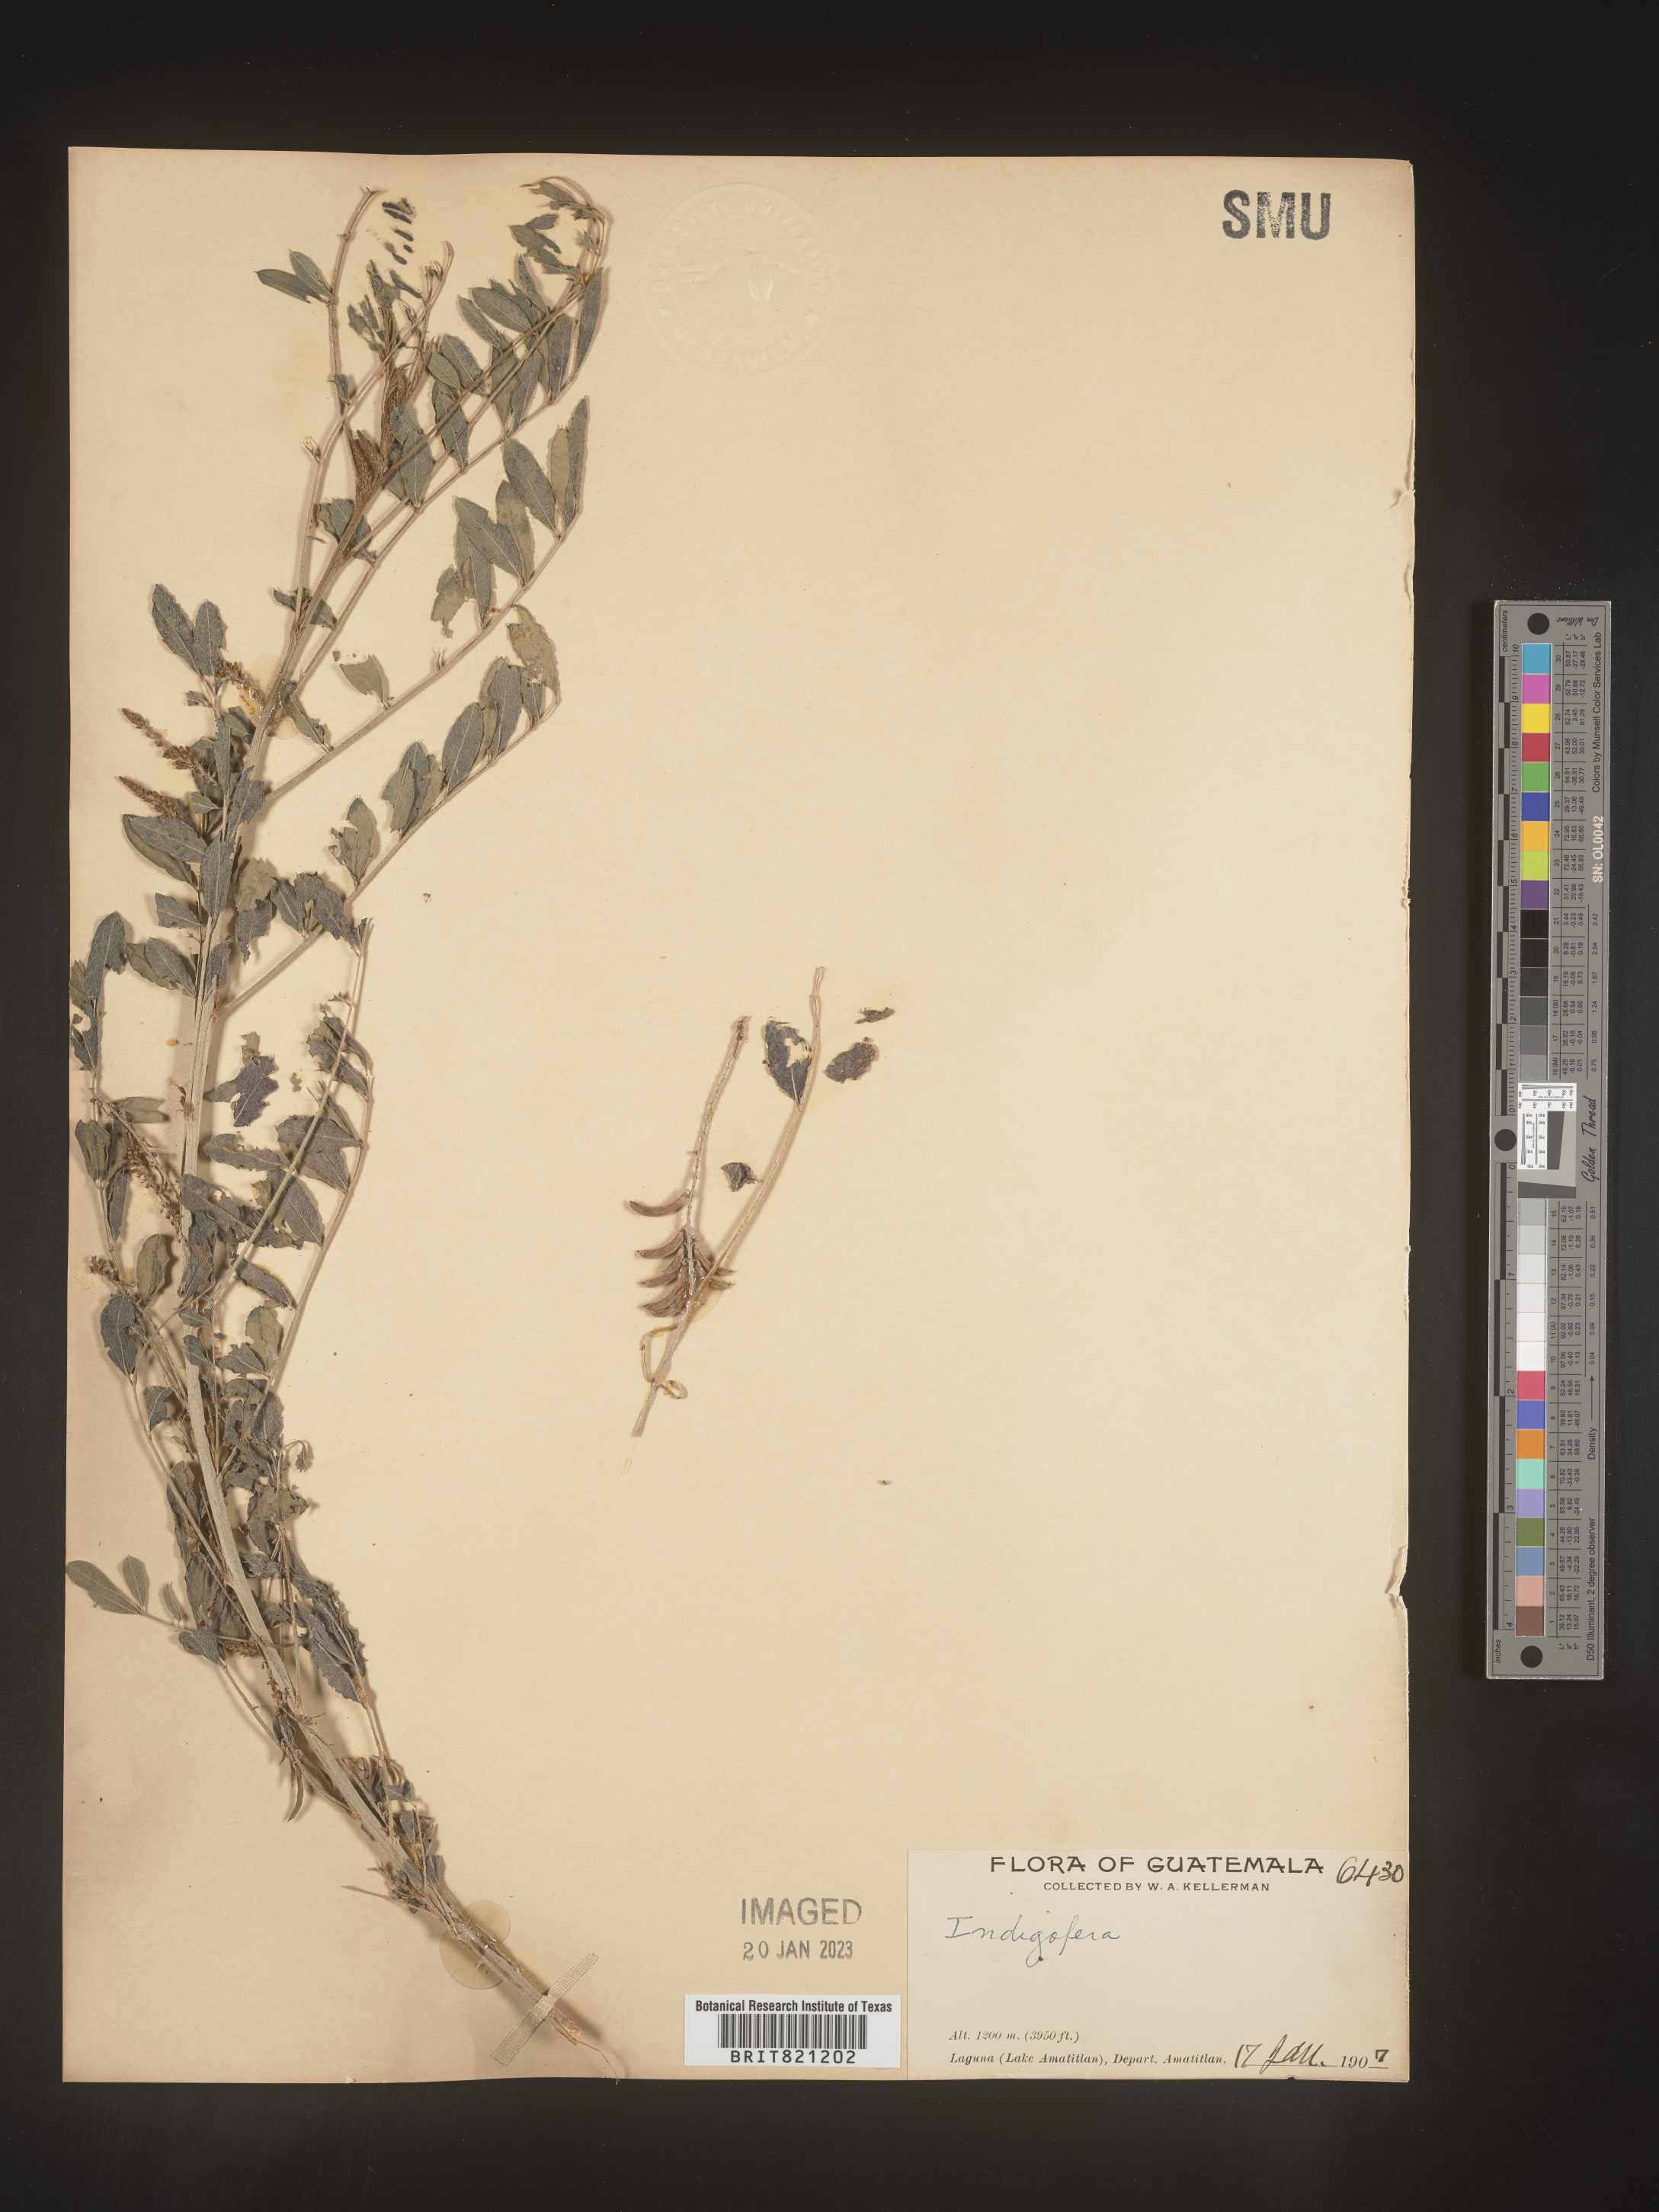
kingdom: Plantae
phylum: Tracheophyta
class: Magnoliopsida
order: Fabales
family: Fabaceae
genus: Indigofera
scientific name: Indigofera
